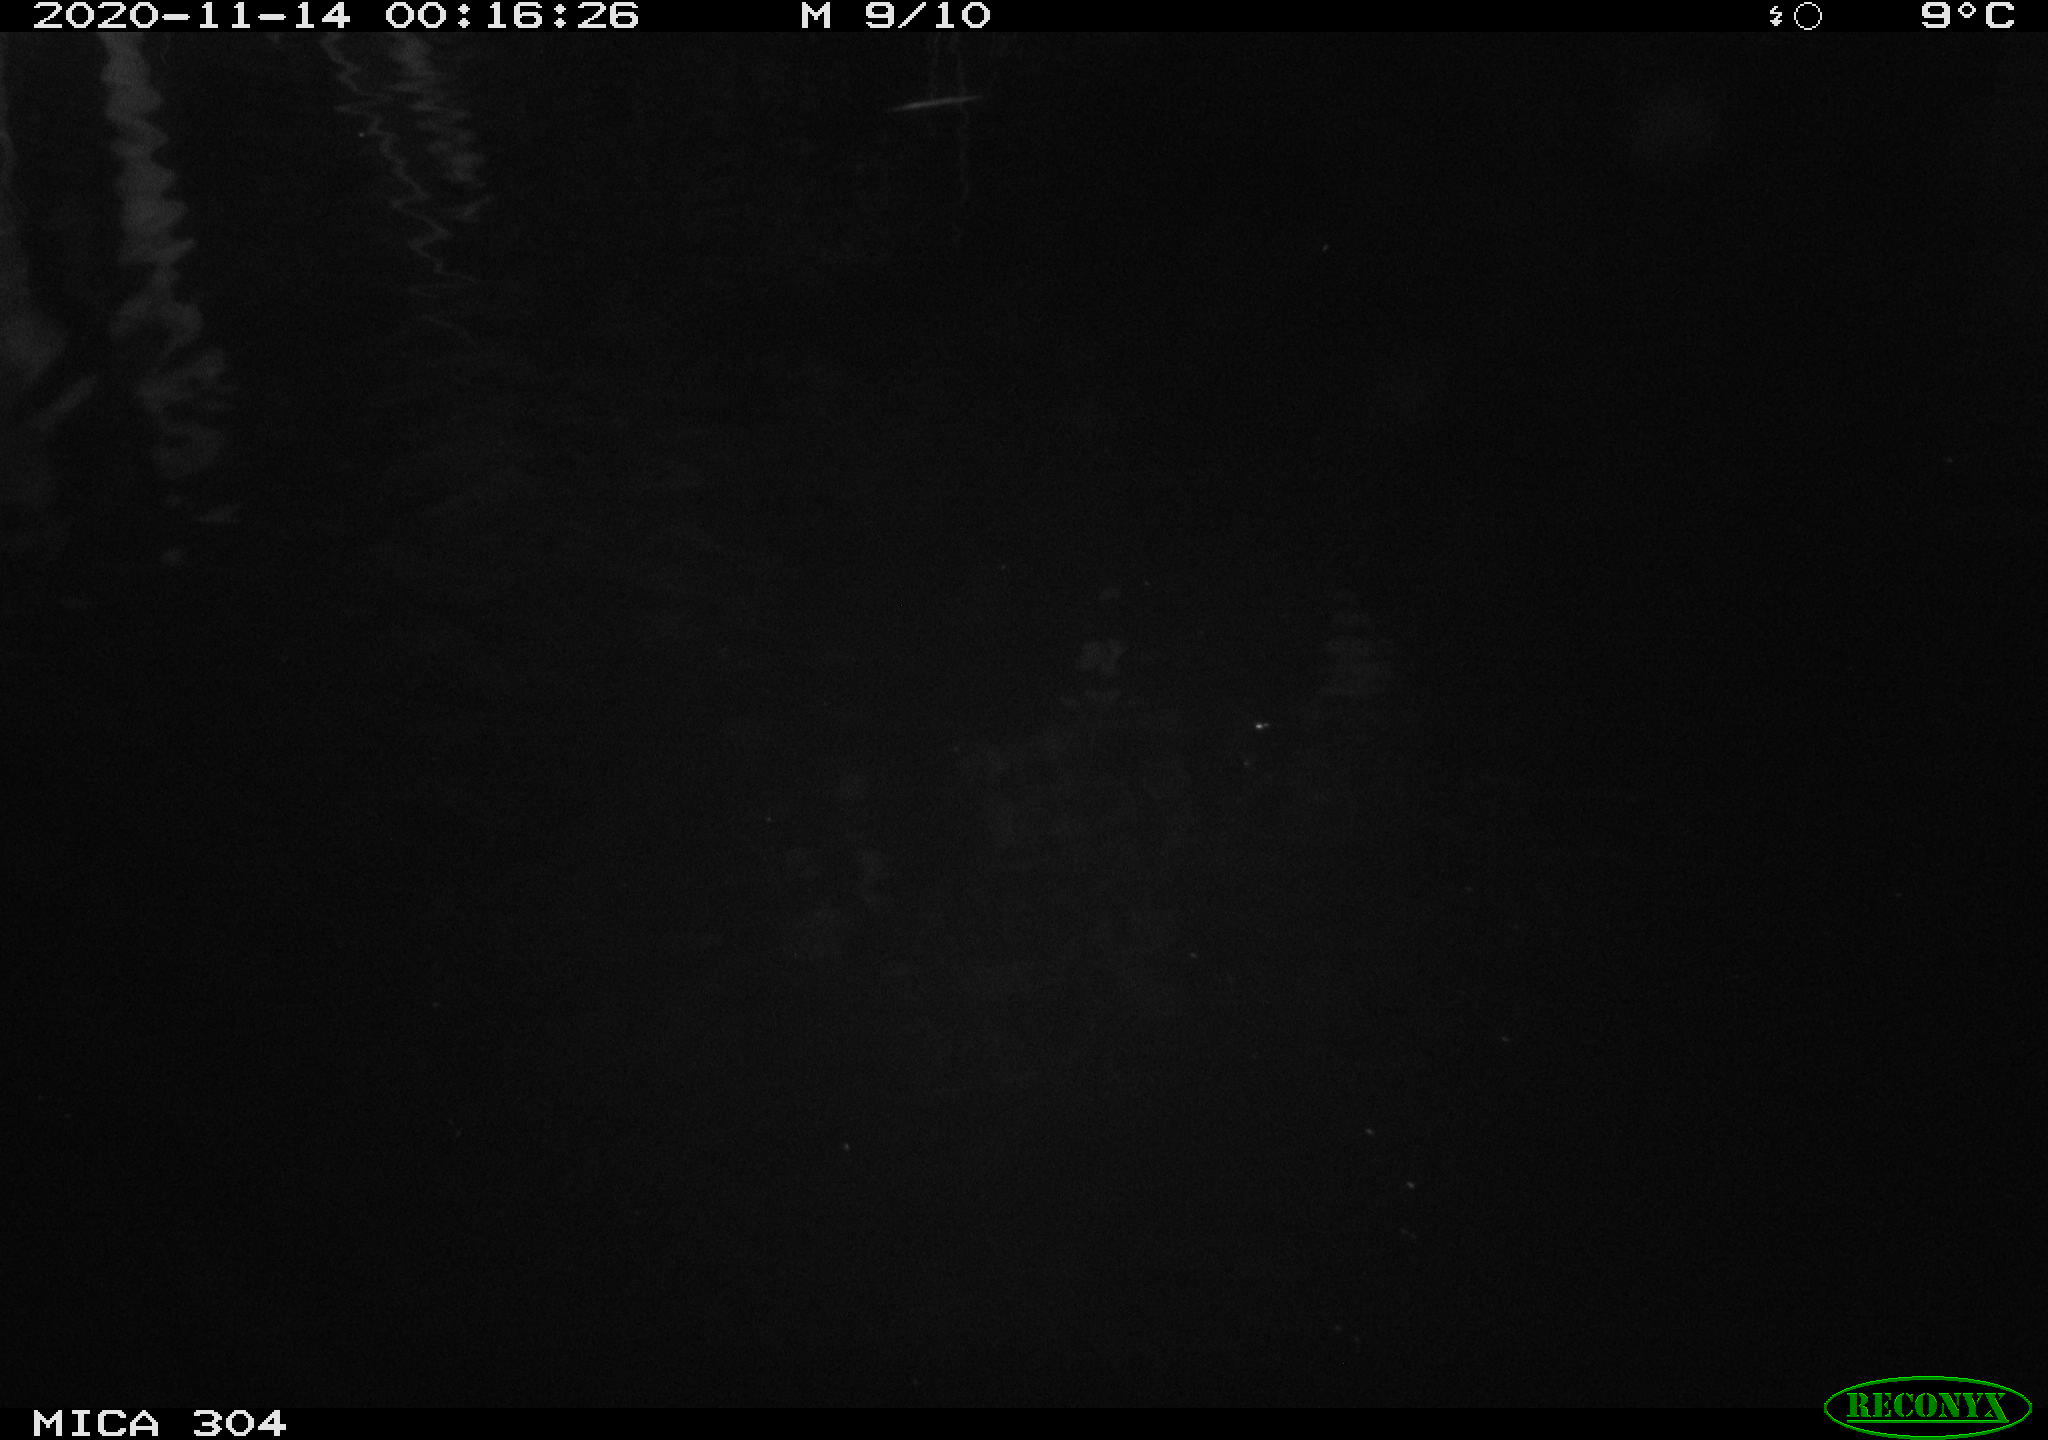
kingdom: Animalia
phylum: Chordata
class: Mammalia
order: Rodentia
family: Muridae
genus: Rattus
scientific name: Rattus norvegicus
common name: Brown rat
